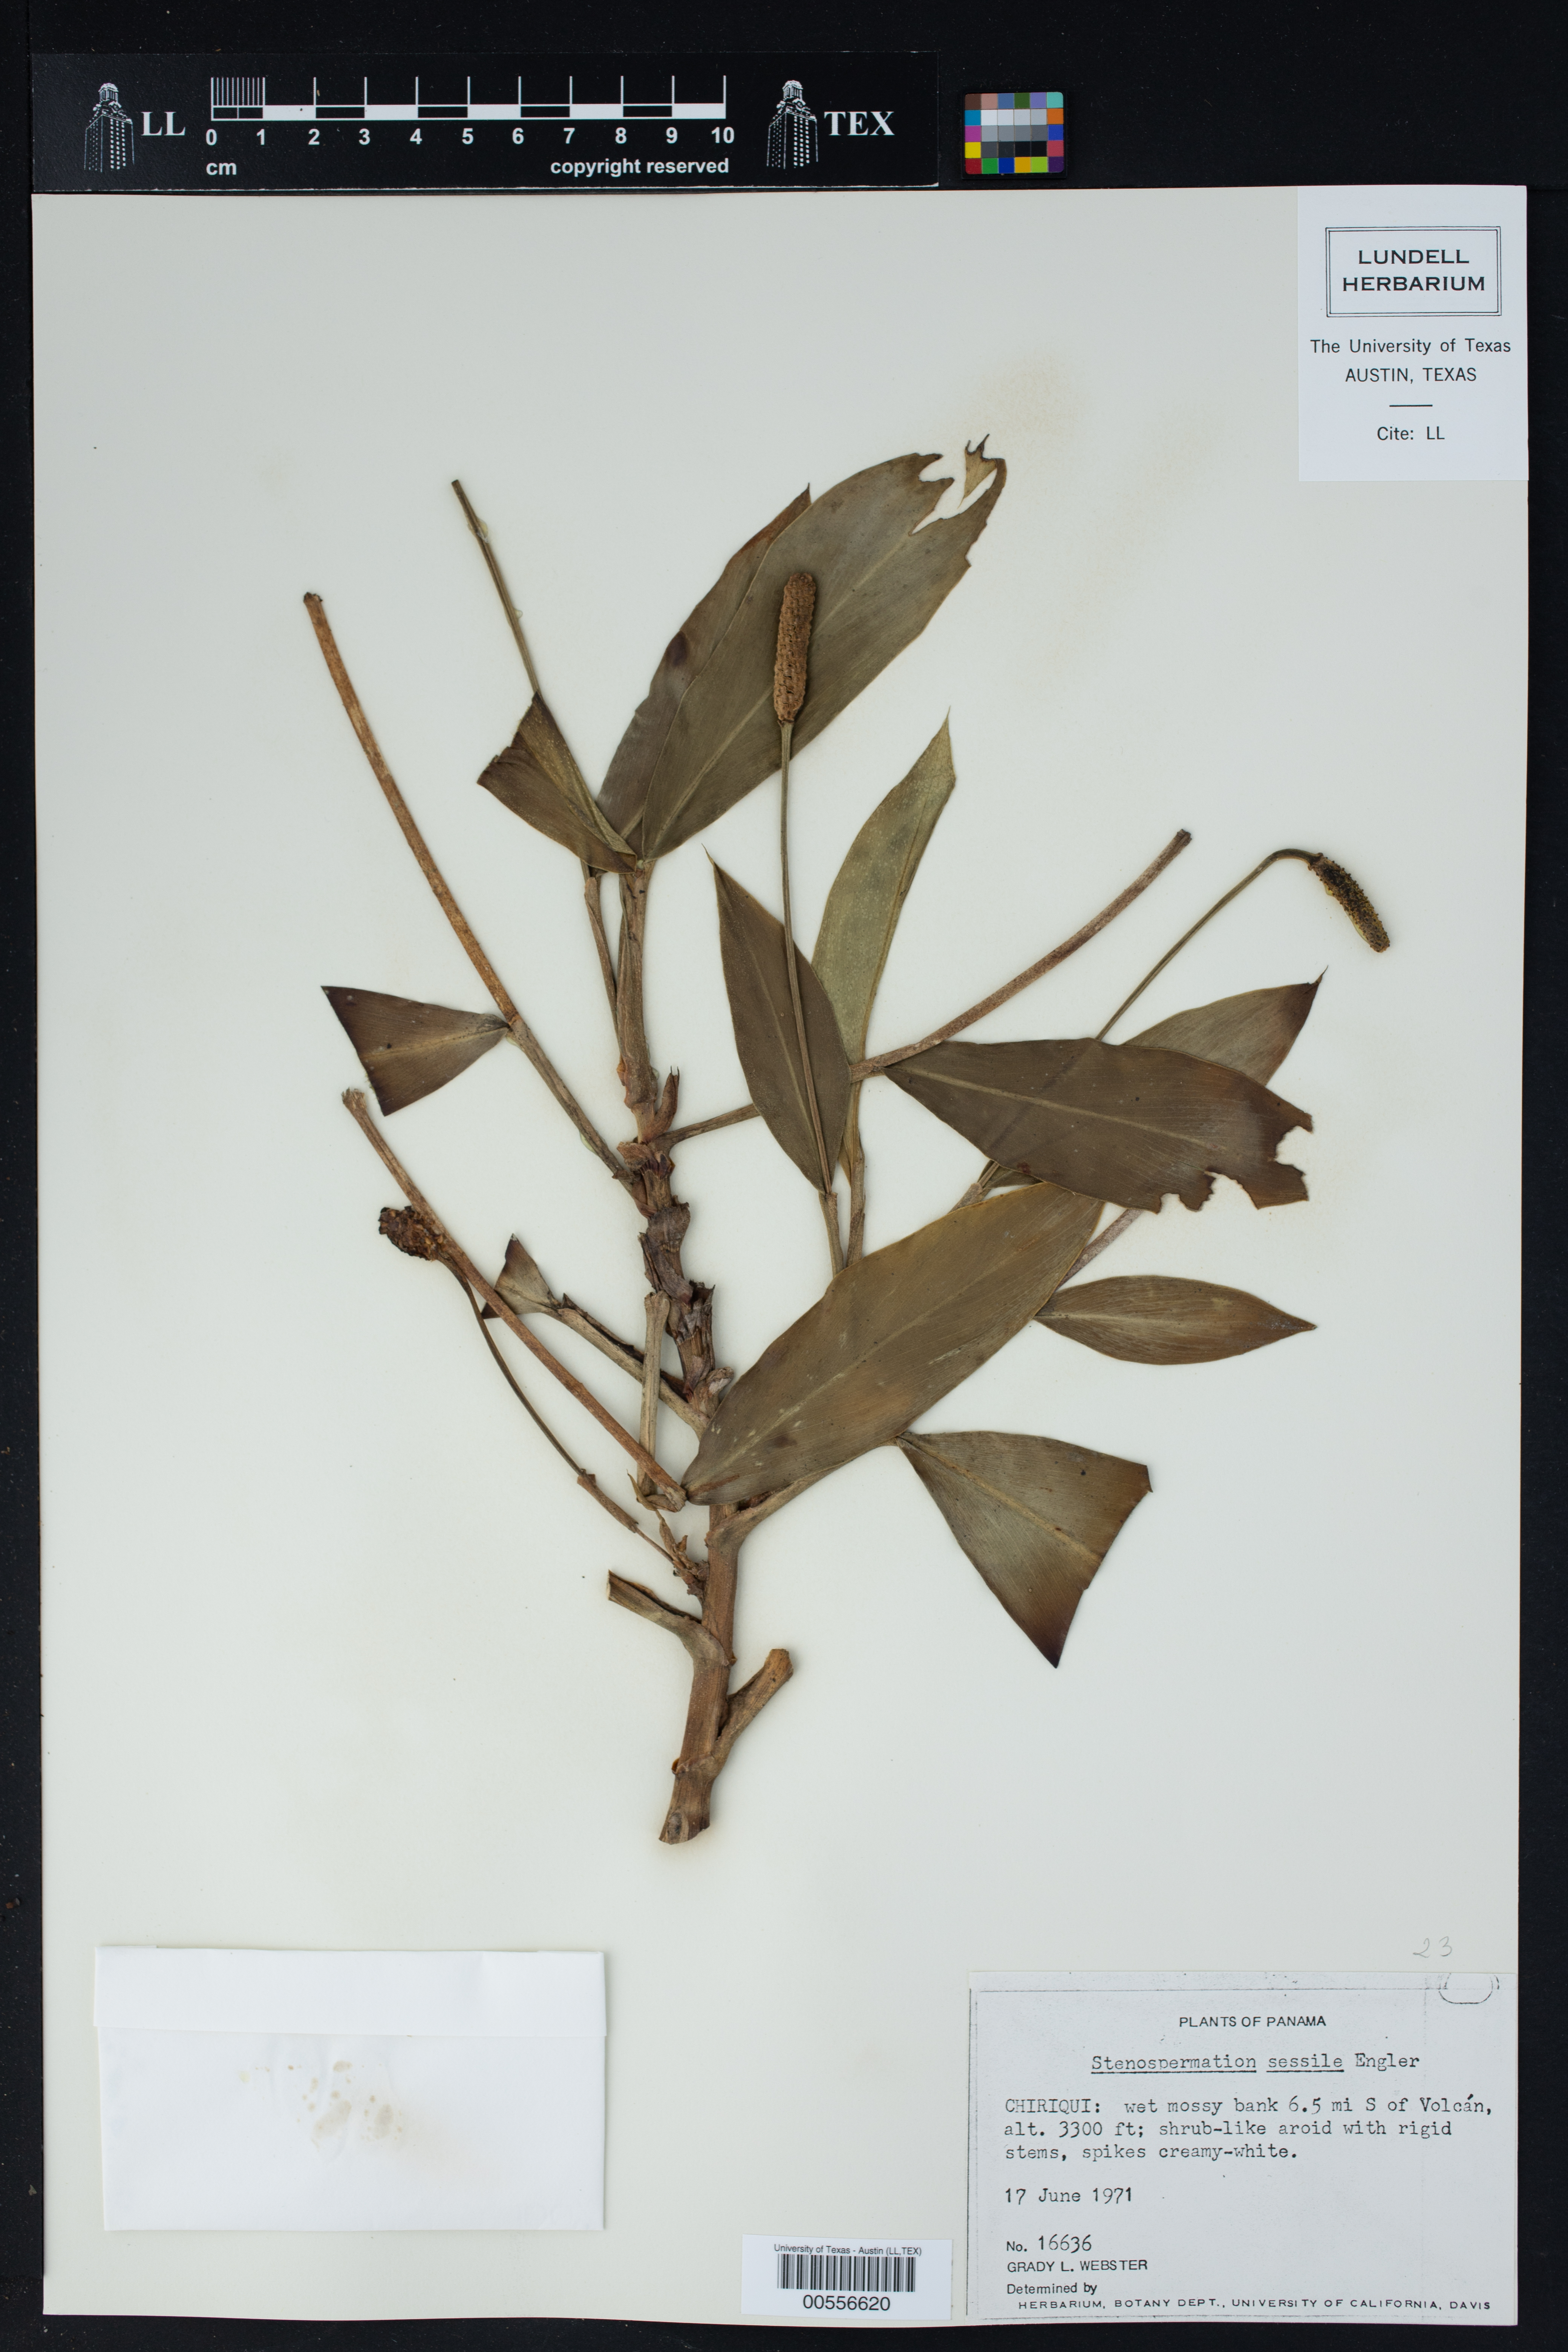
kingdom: Plantae
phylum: Tracheophyta
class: Liliopsida
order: Alismatales
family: Araceae
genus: Stenospermation
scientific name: Stenospermation sessile
